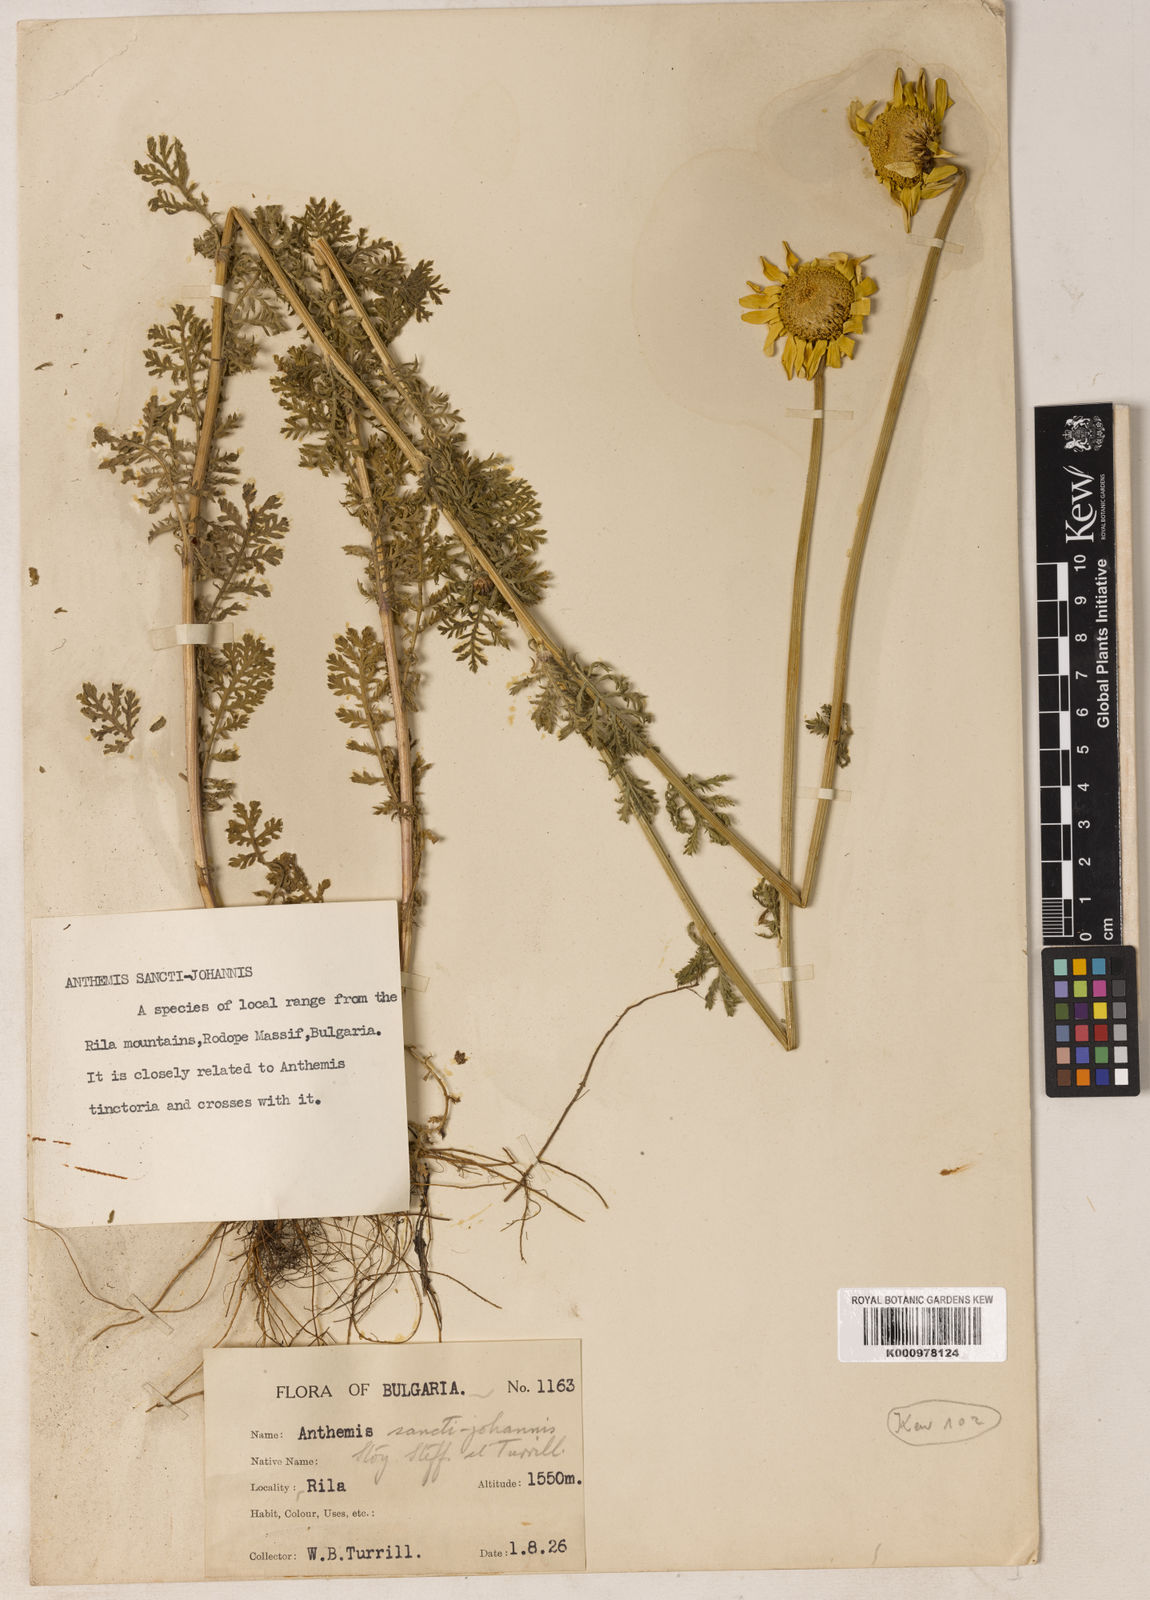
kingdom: Plantae
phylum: Tracheophyta
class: Magnoliopsida
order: Asterales
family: Asteraceae
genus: Cota
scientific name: Cota tinctoria
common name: Golden chamomile
